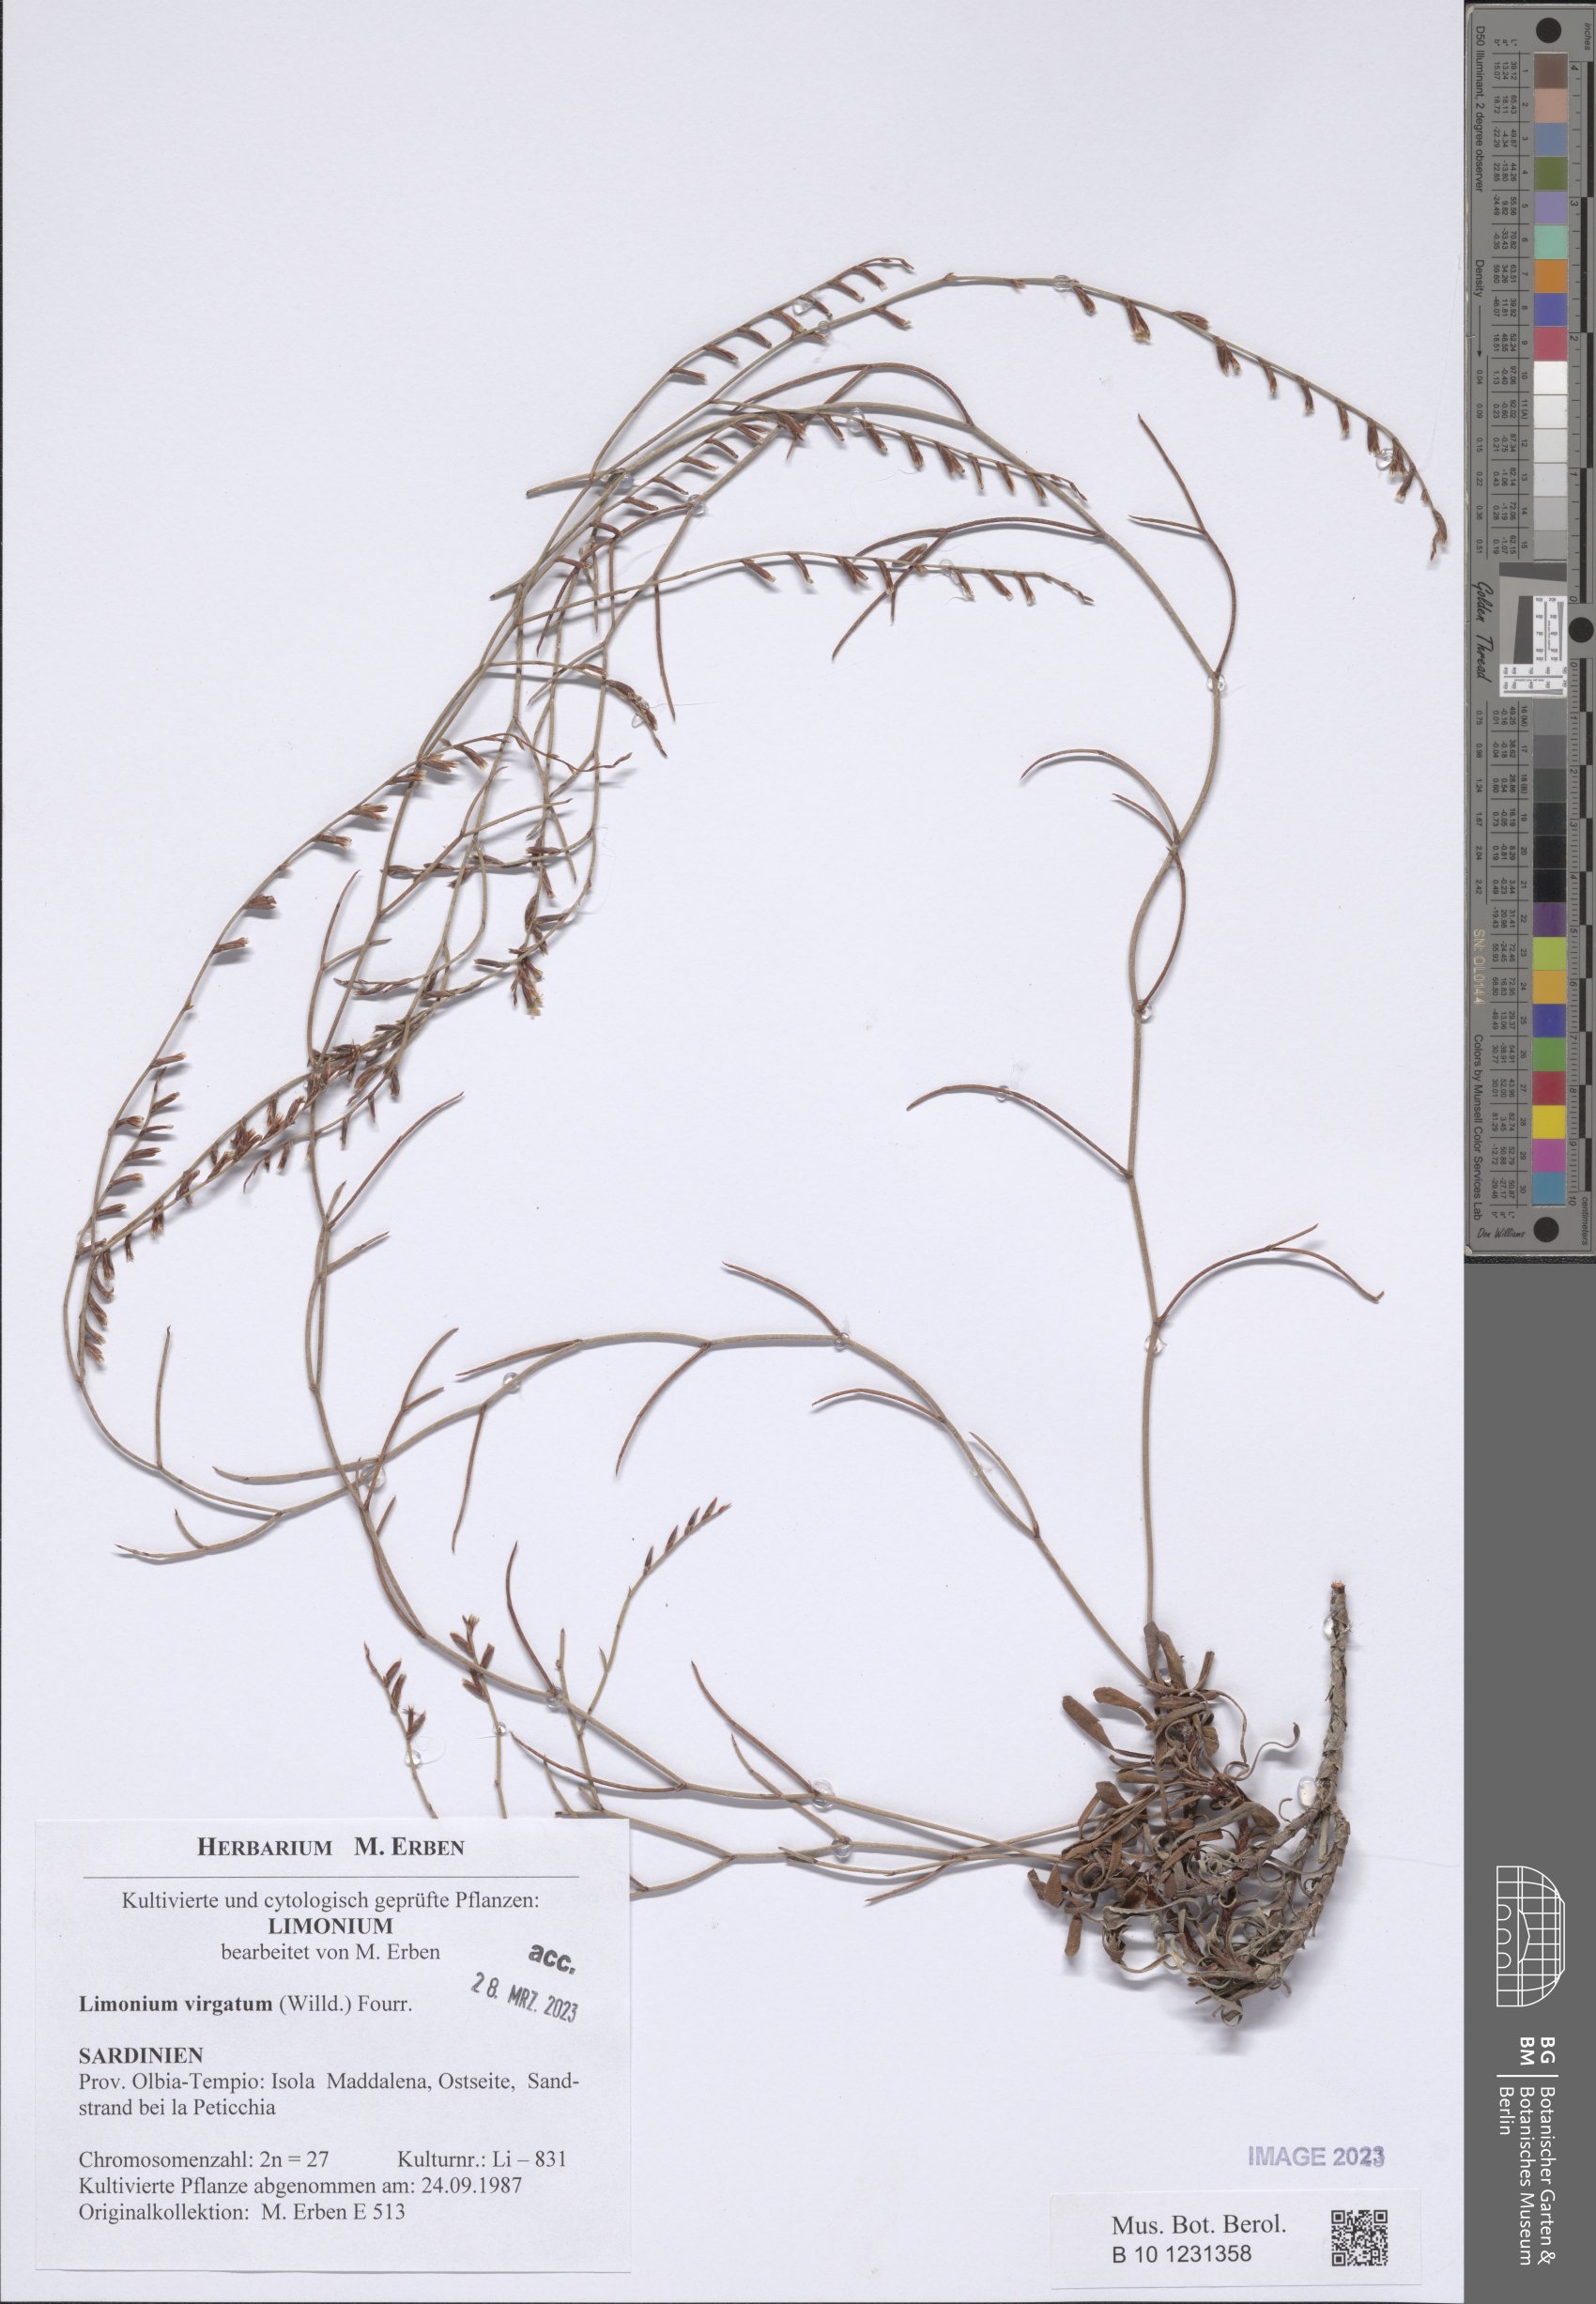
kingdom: Plantae
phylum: Tracheophyta
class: Magnoliopsida
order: Caryophyllales
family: Plumbaginaceae
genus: Limonium
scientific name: Limonium virgatum
